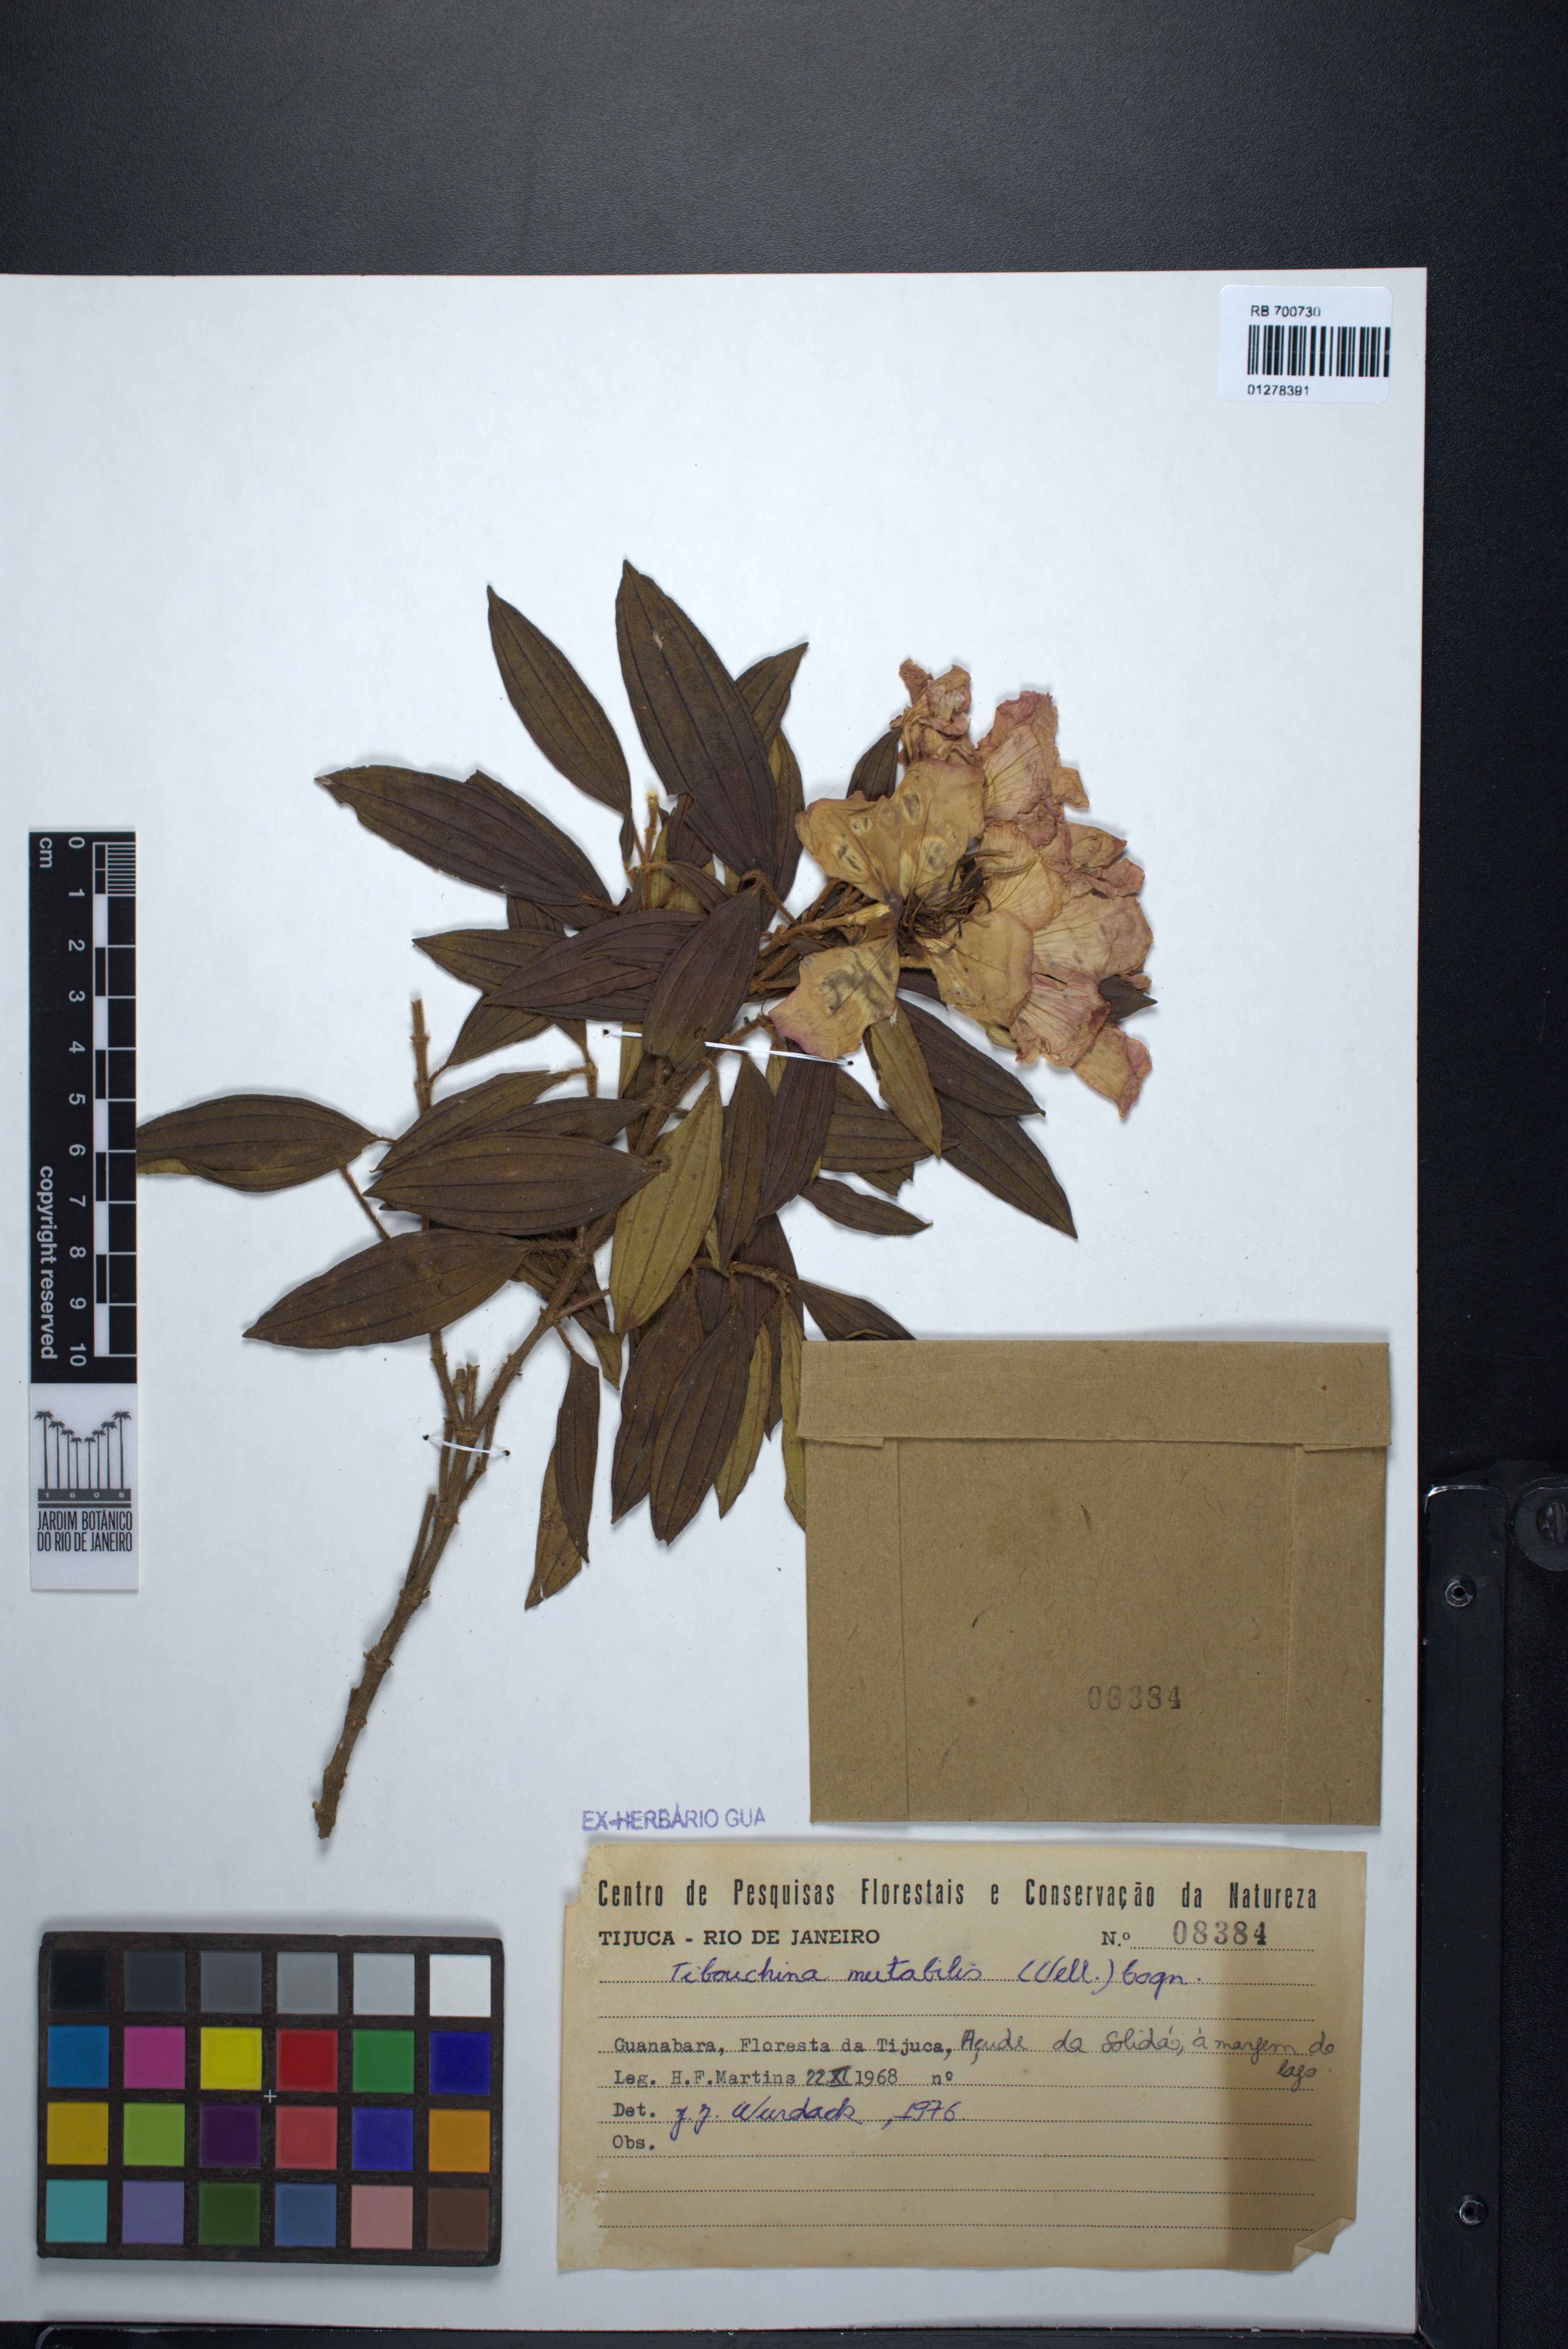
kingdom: Plantae
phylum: Tracheophyta
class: Magnoliopsida
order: Myrtales
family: Melastomataceae
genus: Pleroma
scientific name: Pleroma mutabile
